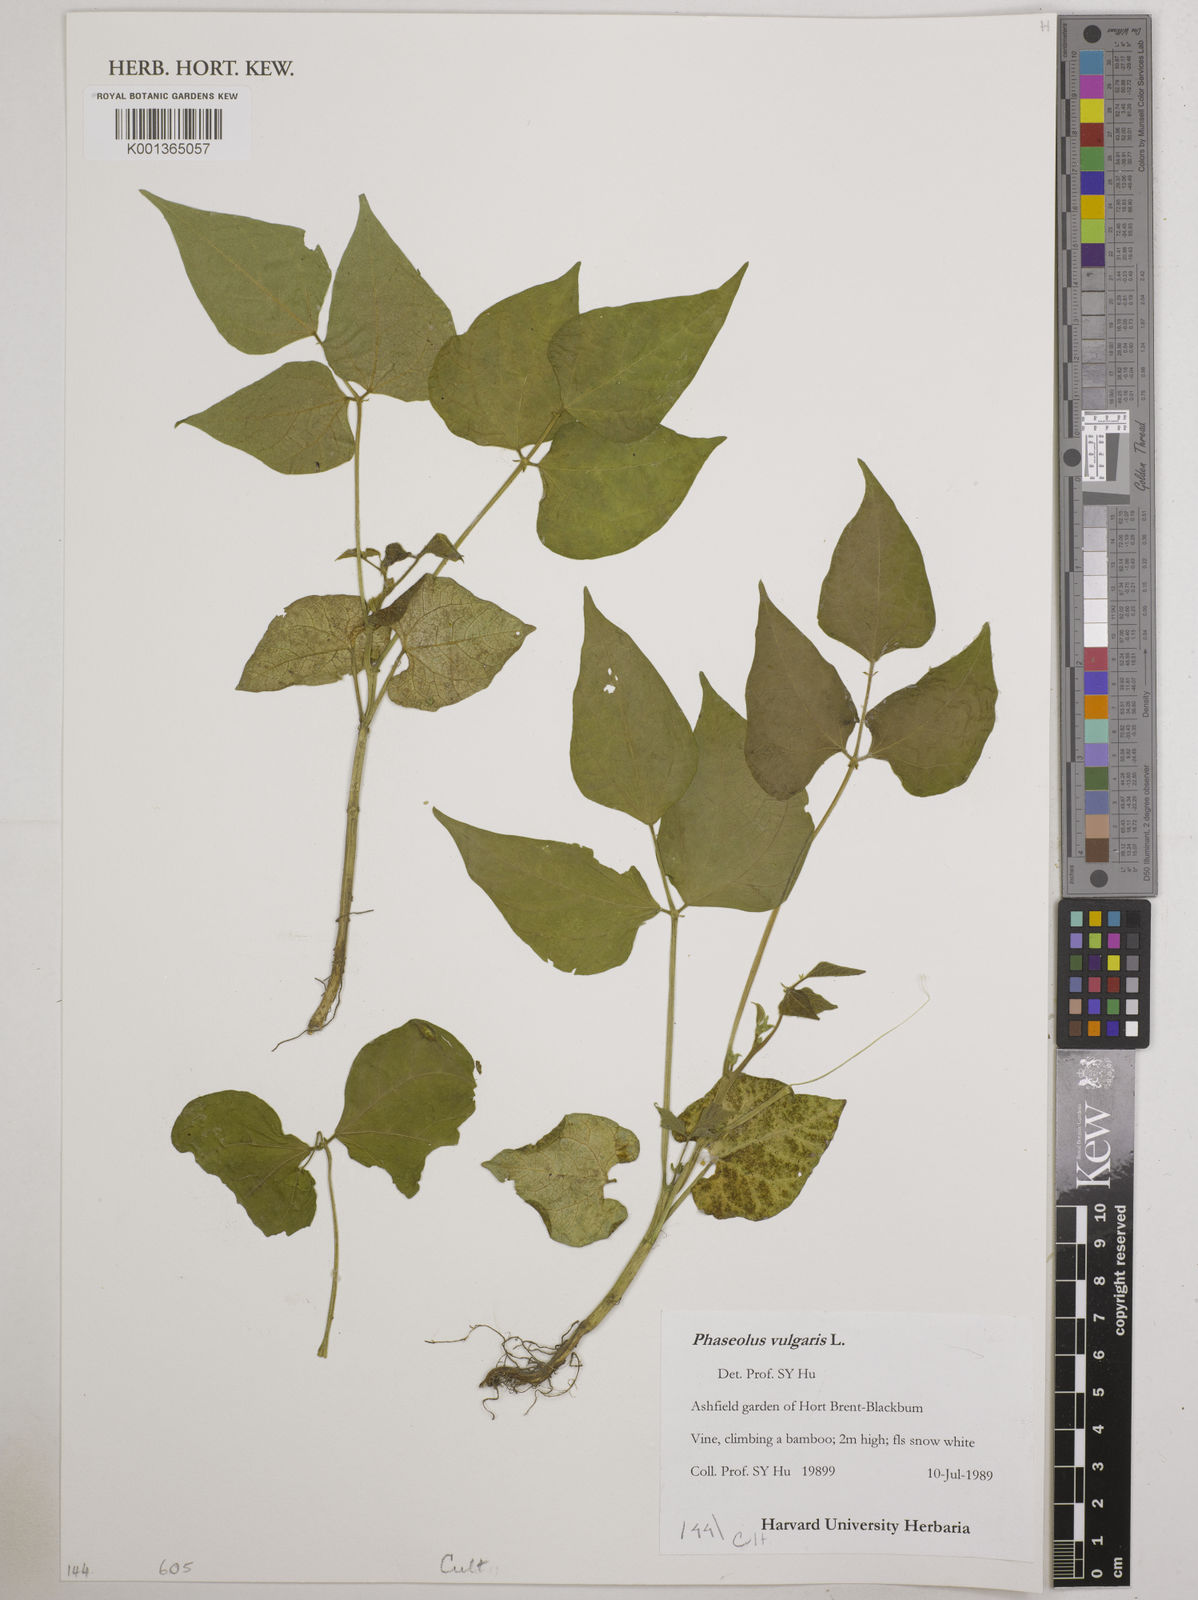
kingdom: Plantae
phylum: Tracheophyta
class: Magnoliopsida
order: Fabales
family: Fabaceae
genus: Phaseolus
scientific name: Phaseolus vulgaris
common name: Bean
